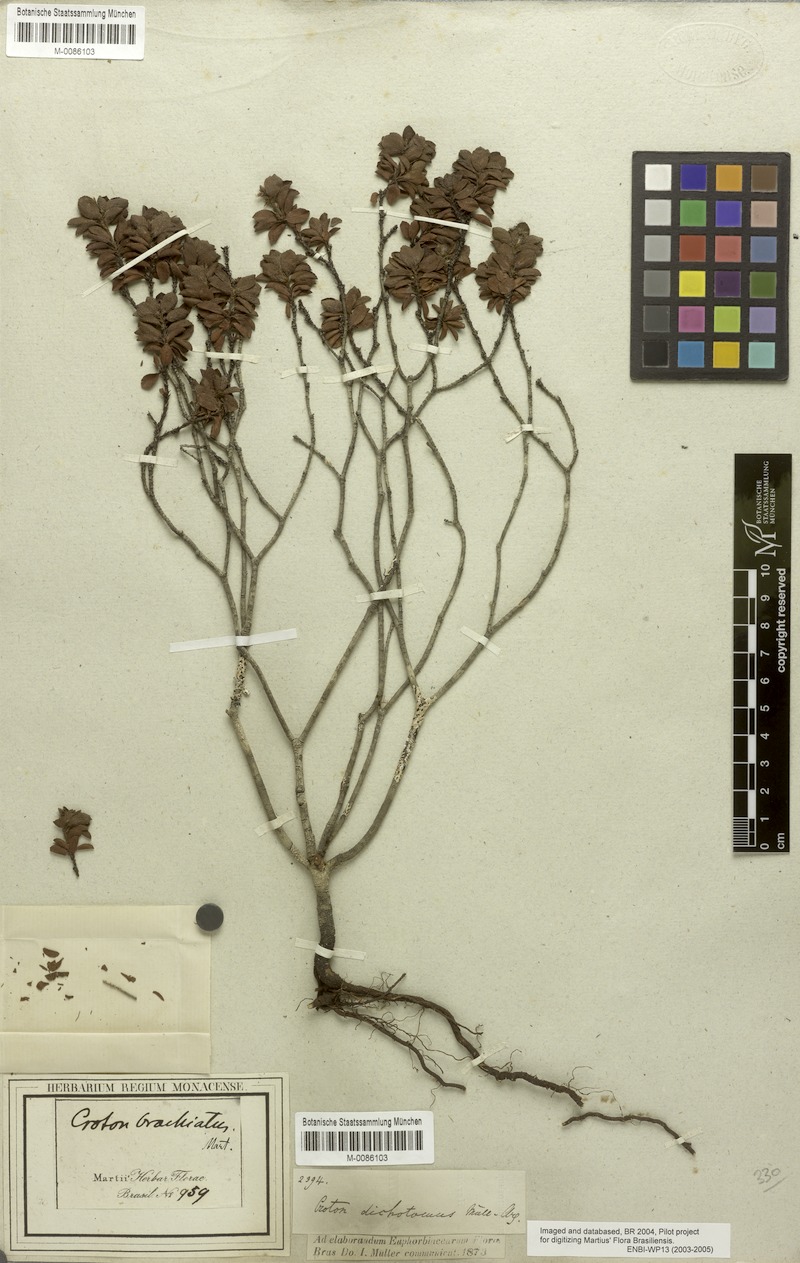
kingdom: Plantae
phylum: Tracheophyta
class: Magnoliopsida
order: Malpighiales
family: Euphorbiaceae
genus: Croton
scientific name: Croton serratus
